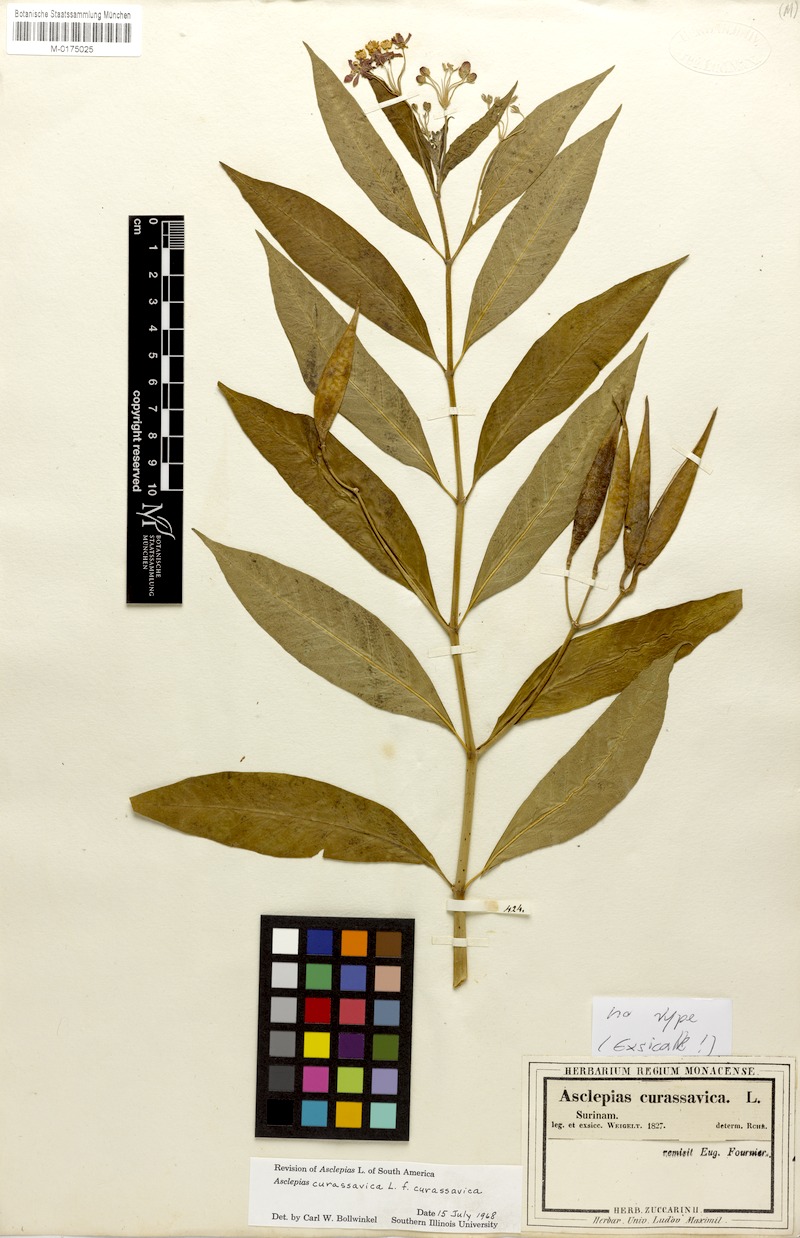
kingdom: Plantae
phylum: Tracheophyta
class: Magnoliopsida
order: Gentianales
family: Apocynaceae
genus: Asclepias
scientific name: Asclepias curassavica
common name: Bloodflower
